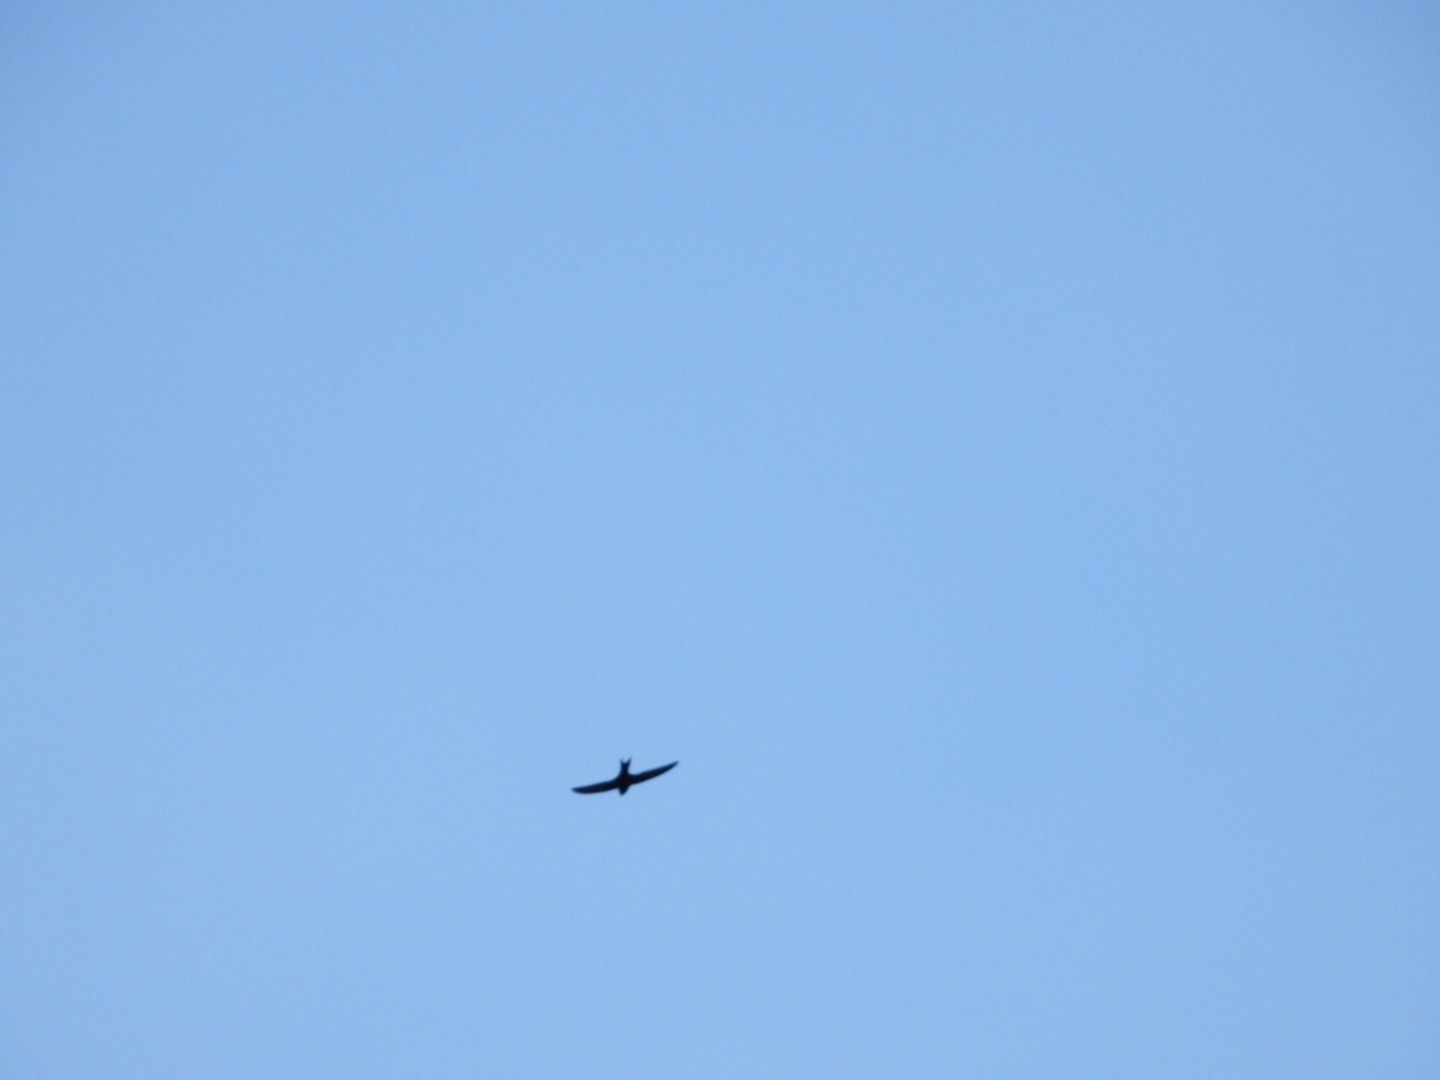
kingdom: Animalia
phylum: Chordata
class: Aves
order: Apodiformes
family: Apodidae
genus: Apus
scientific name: Apus apus
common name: Mursejler
